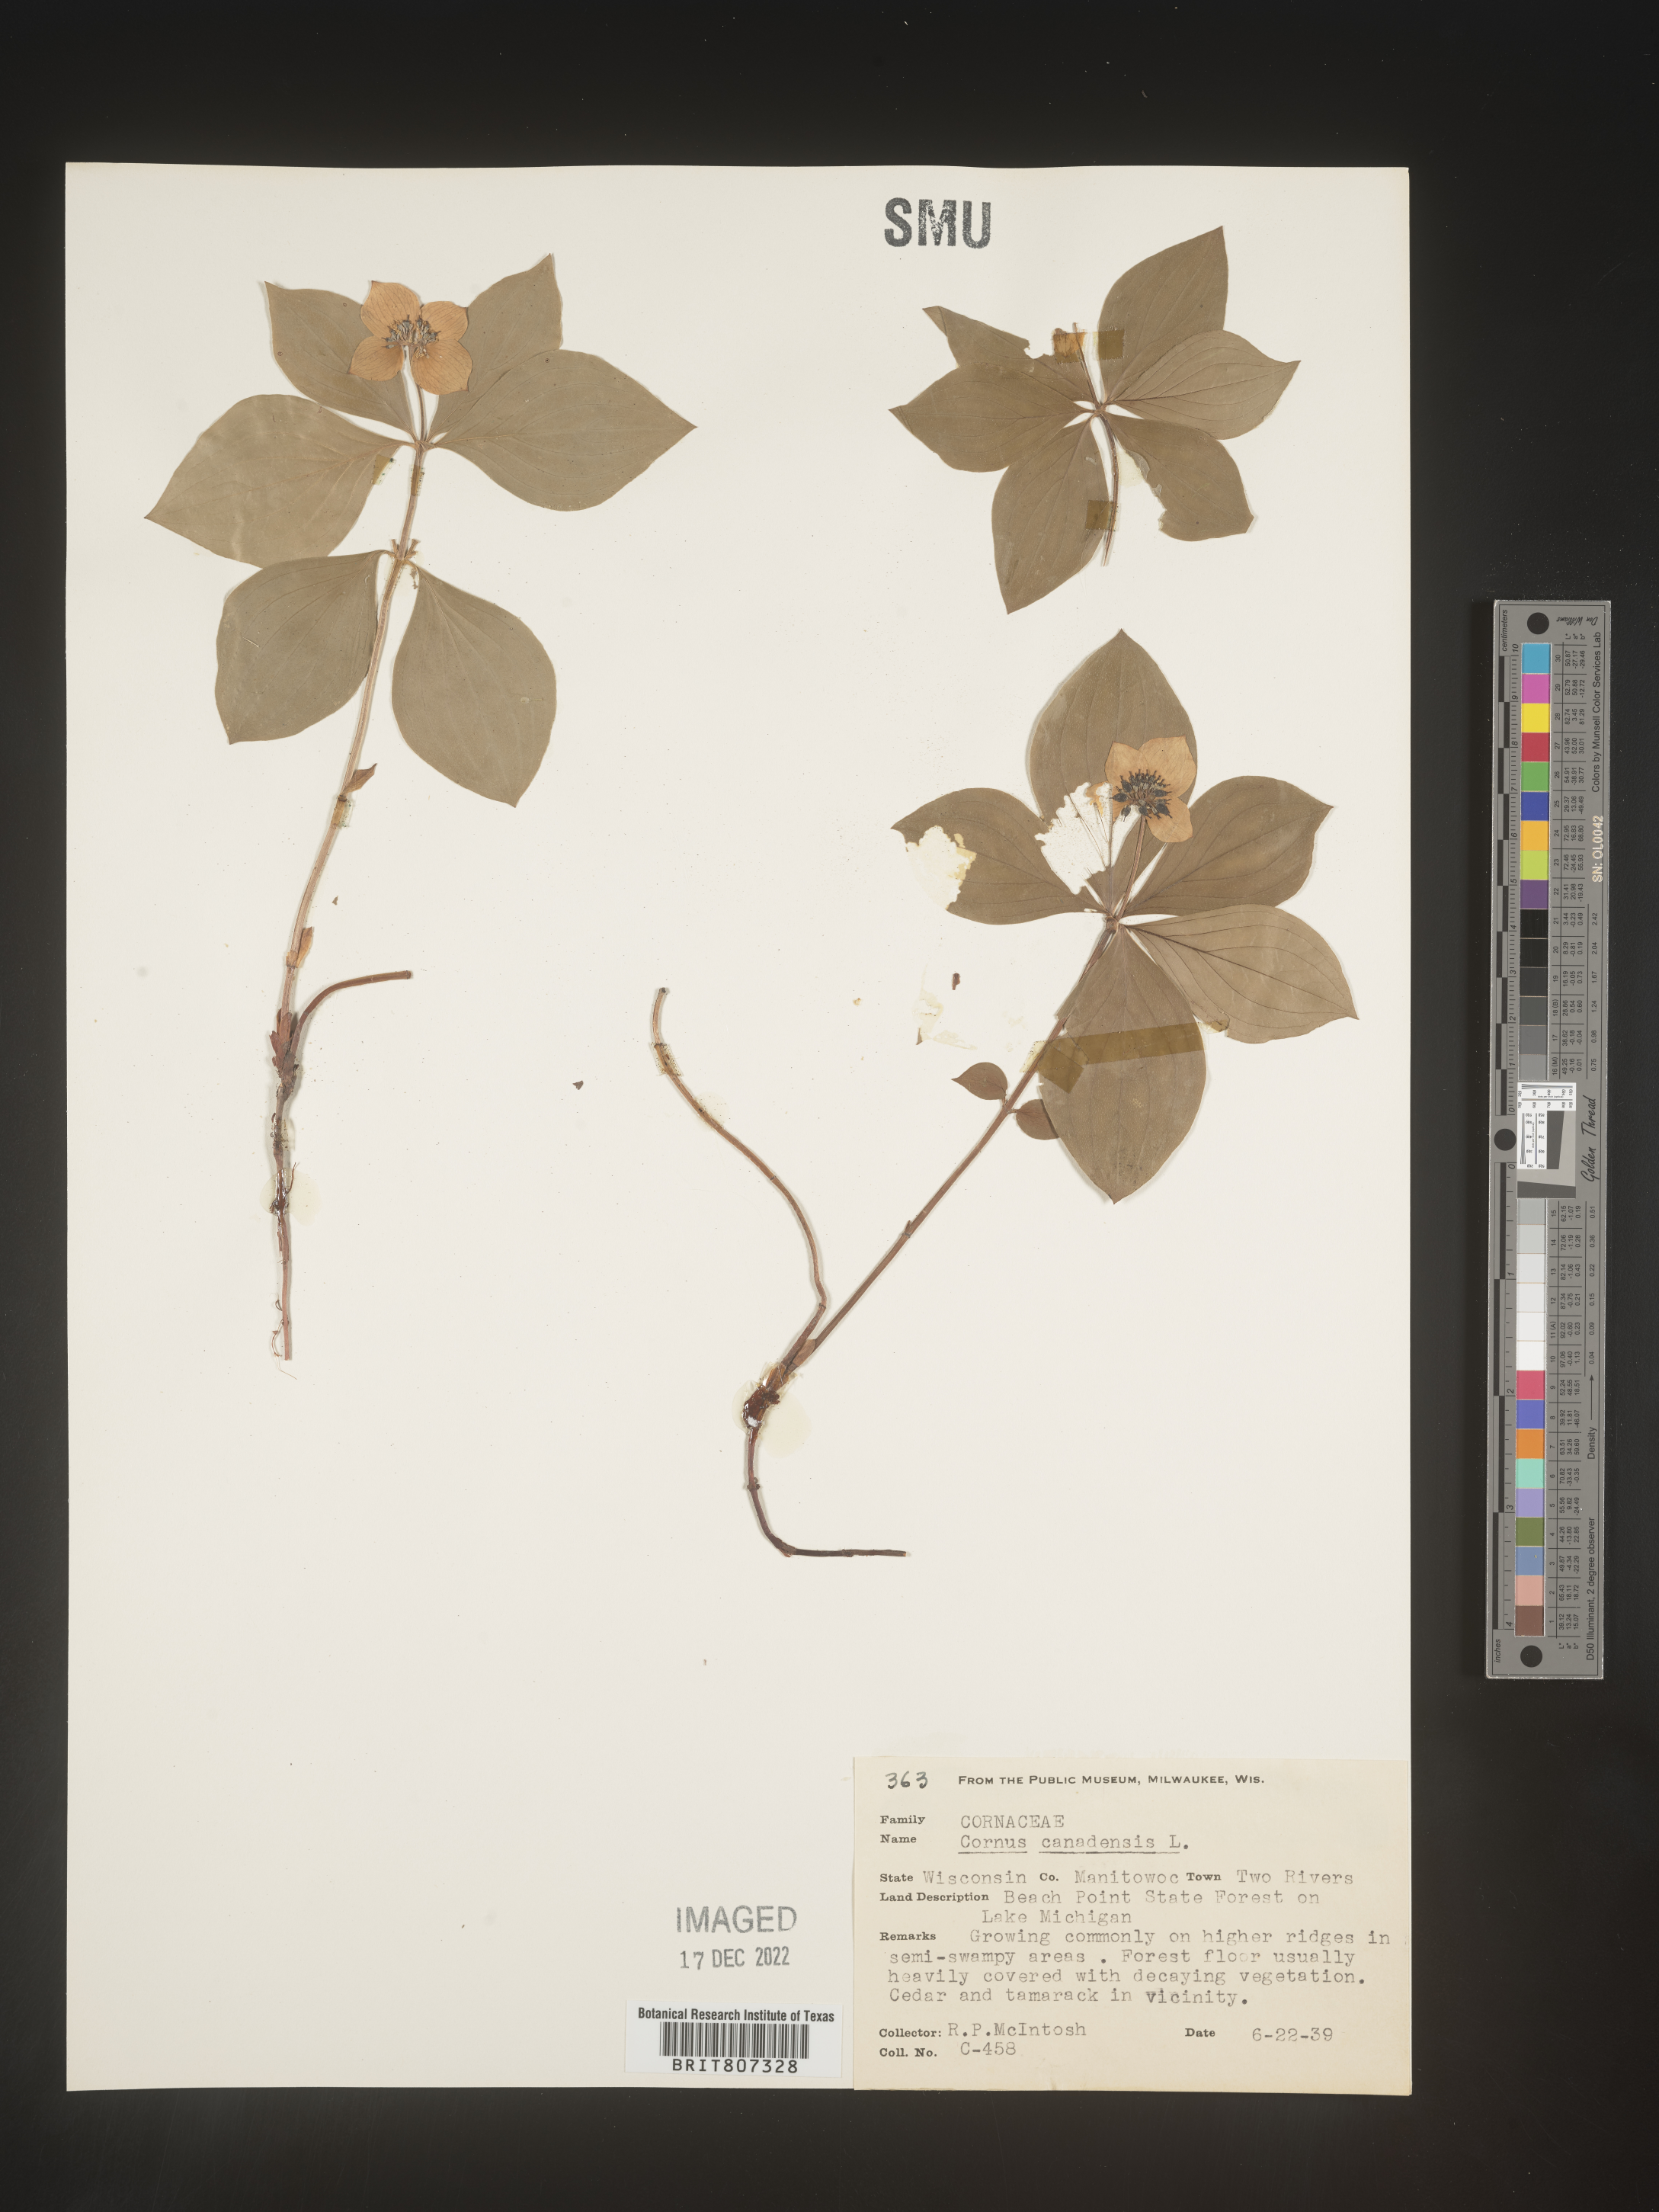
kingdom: Plantae
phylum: Tracheophyta
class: Magnoliopsida
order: Cornales
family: Cornaceae
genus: Cornus
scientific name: Cornus canadensis
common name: Creeping dogwood
